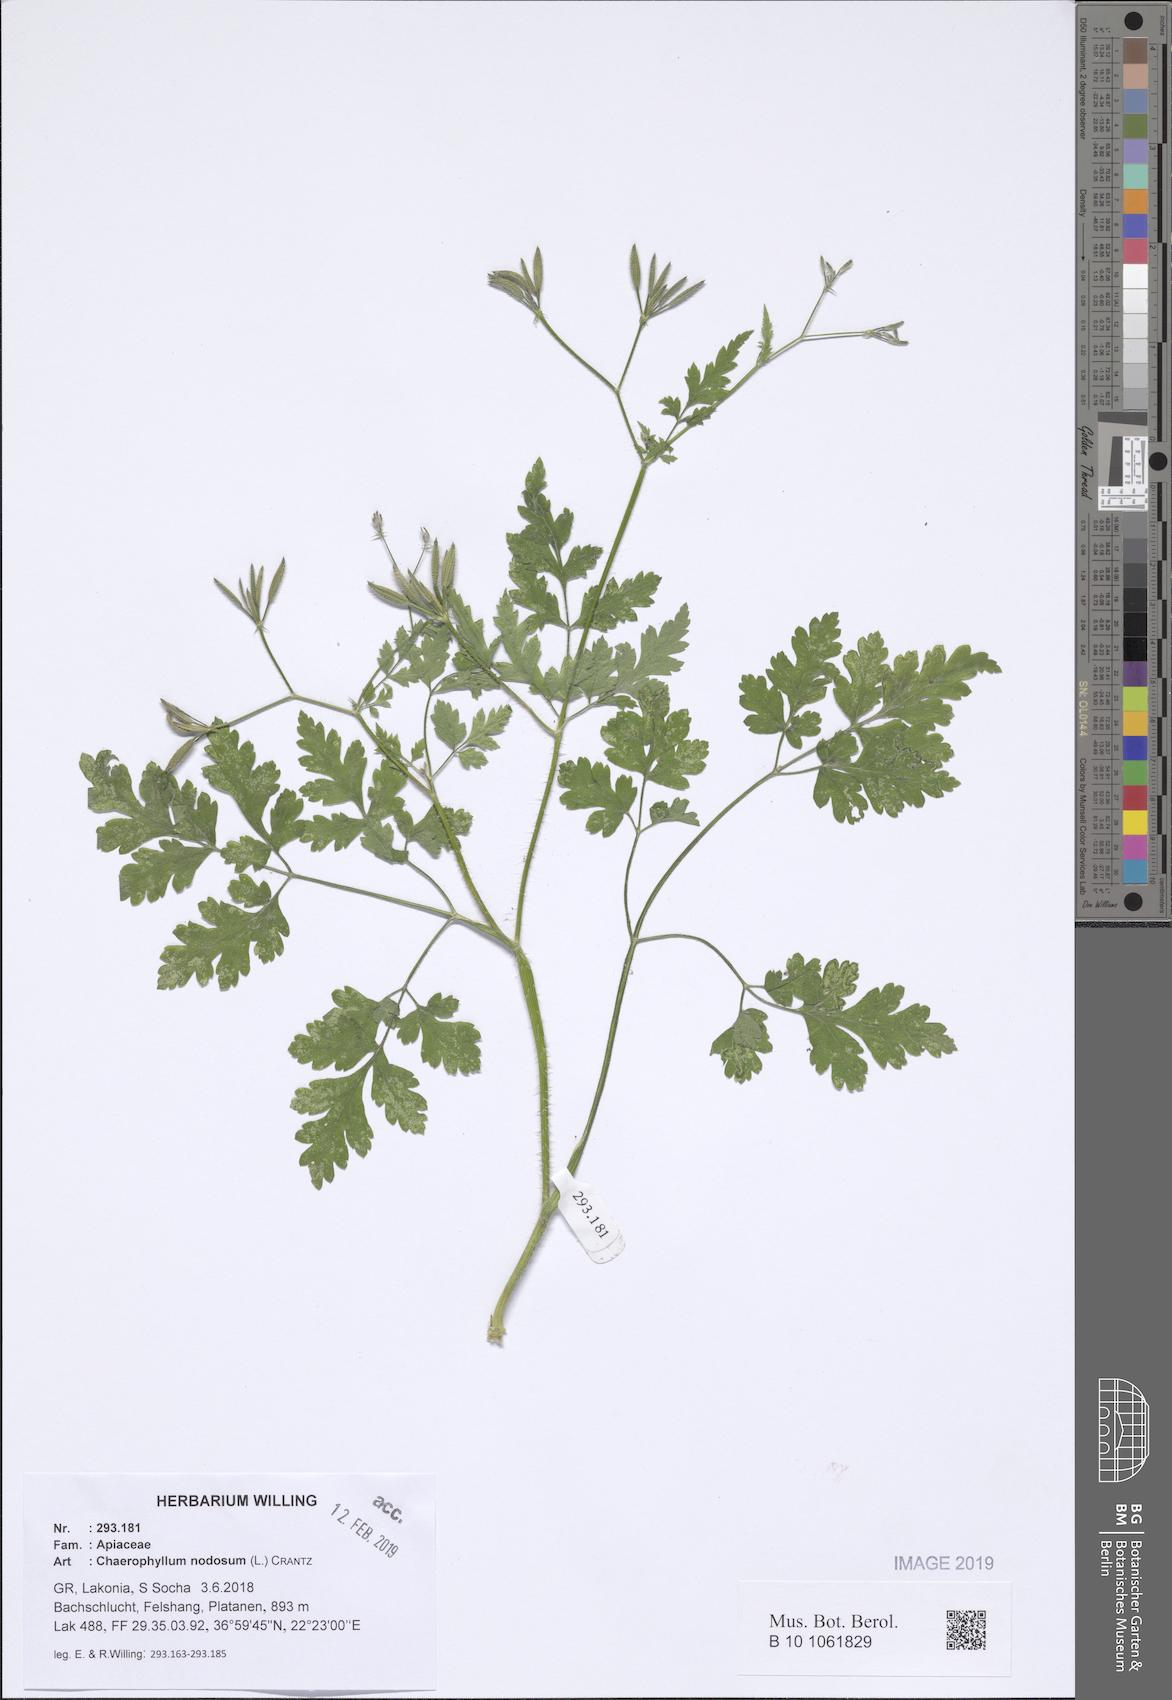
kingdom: Plantae
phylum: Tracheophyta
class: Magnoliopsida
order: Apiales
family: Apiaceae
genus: Chaerophyllum
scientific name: Chaerophyllum nodosum
